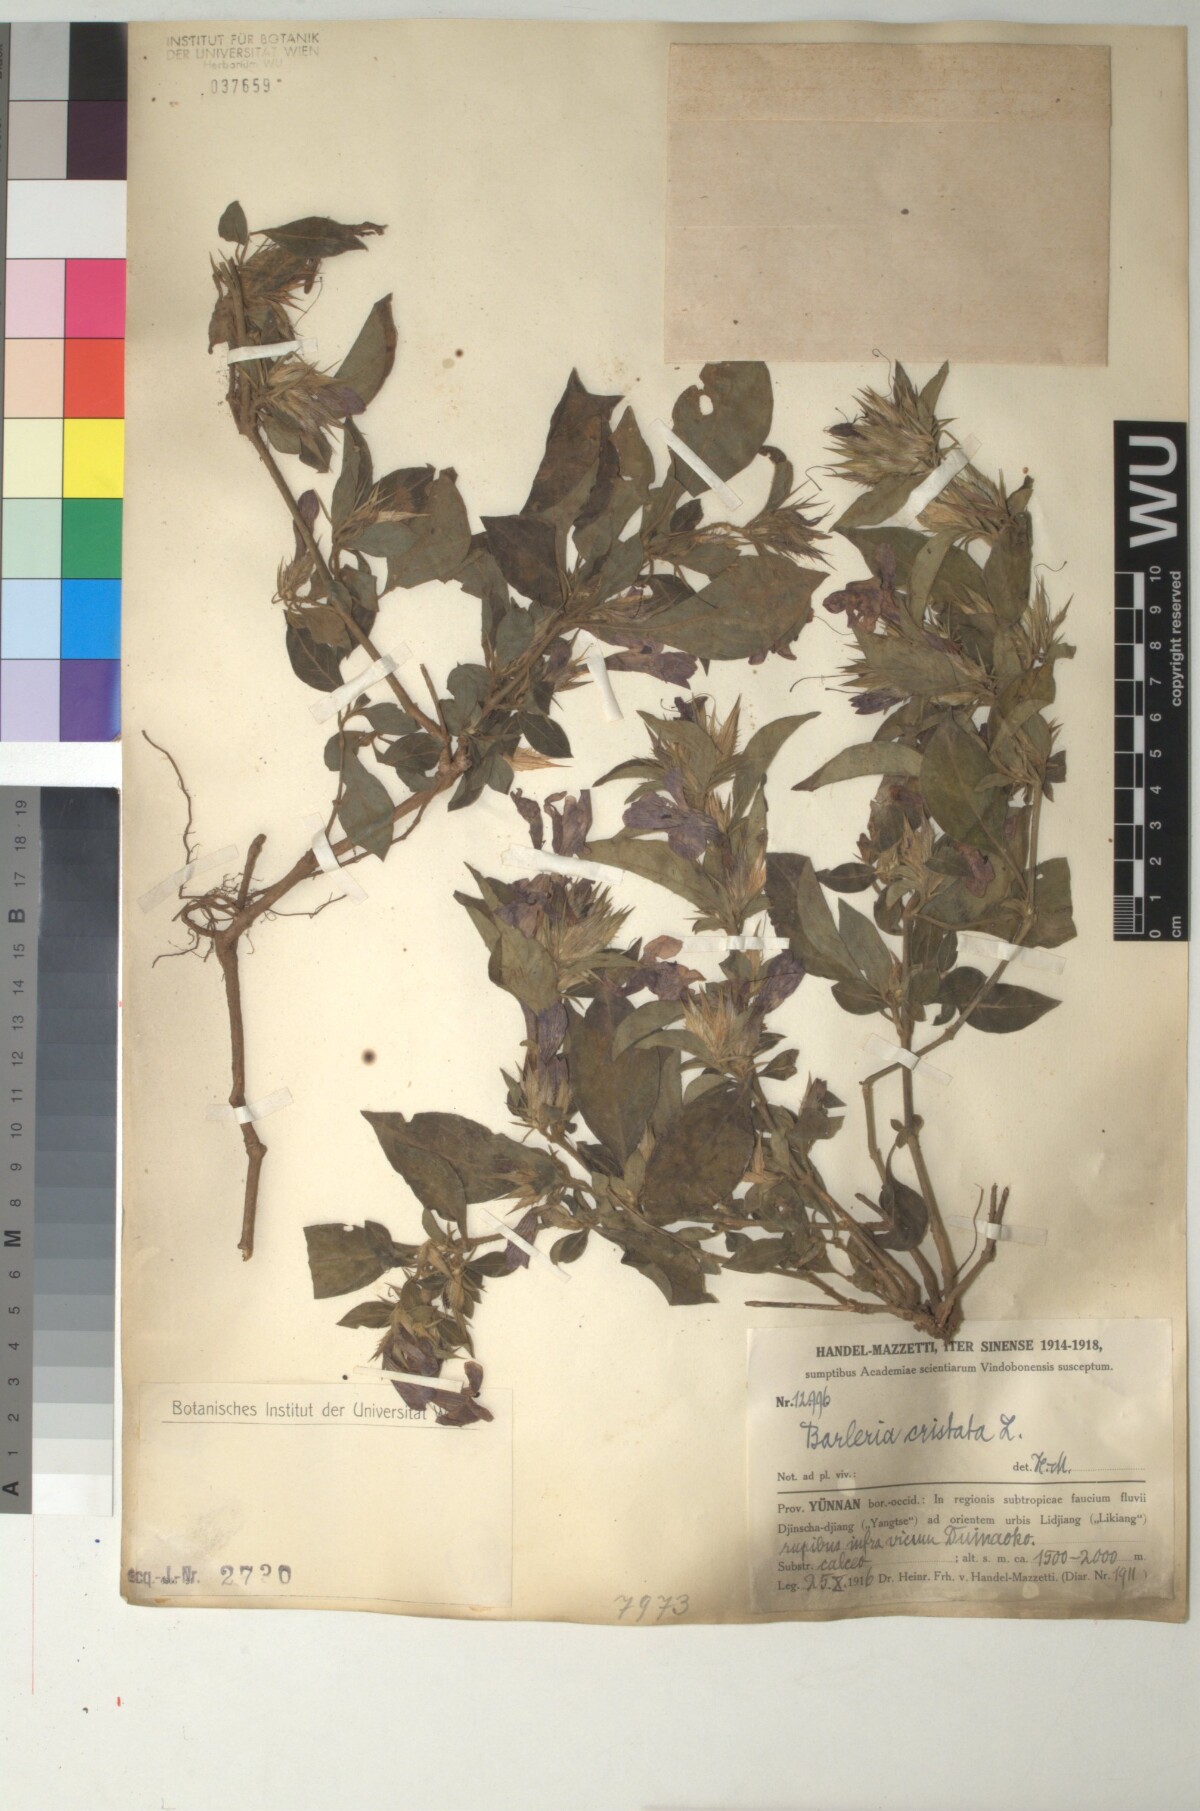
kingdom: Plantae
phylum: Tracheophyta
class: Magnoliopsida
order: Lamiales
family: Acanthaceae
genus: Barleria
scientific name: Barleria cristata
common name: Crested philippine violet
